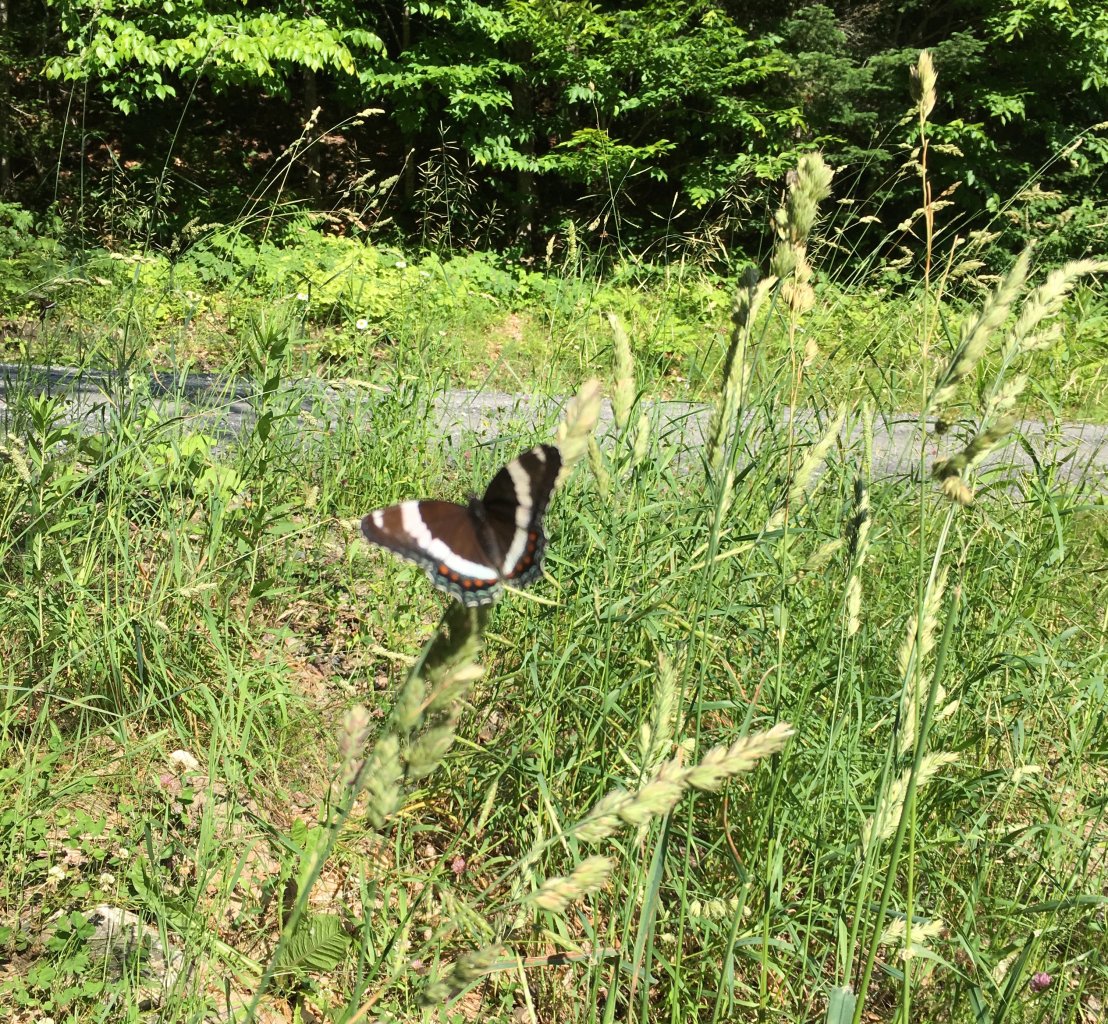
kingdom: Animalia
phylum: Arthropoda
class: Insecta
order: Lepidoptera
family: Nymphalidae
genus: Limenitis
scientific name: Limenitis arthemis
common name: Red-spotted Admiral
